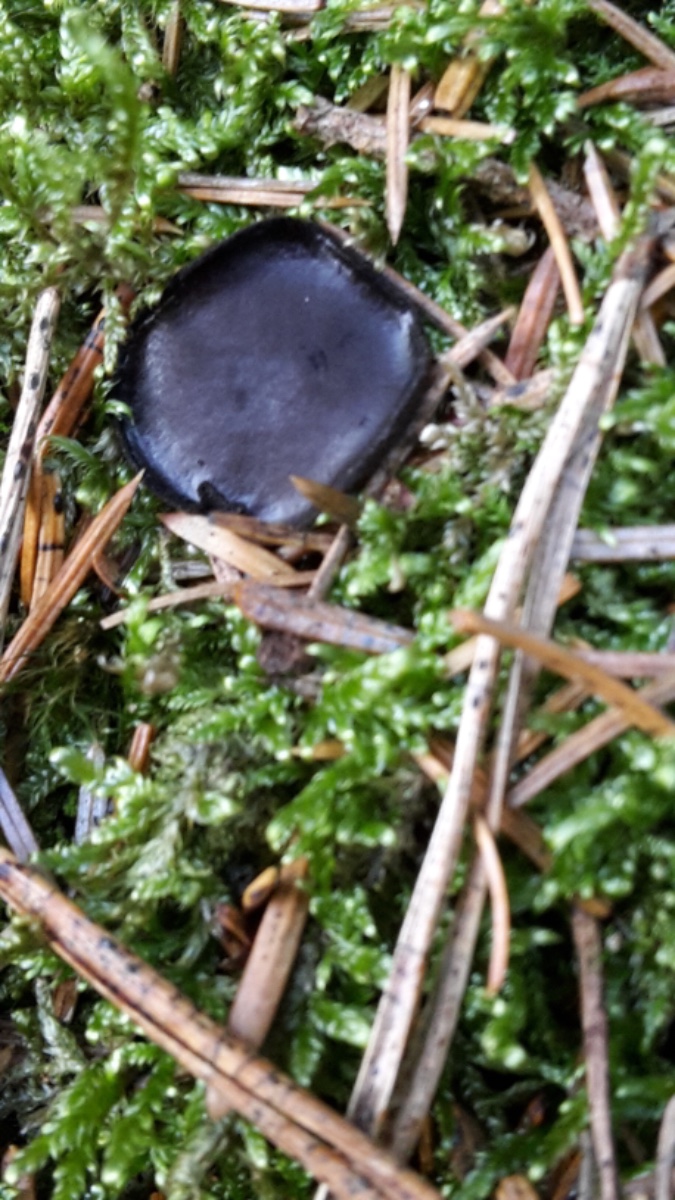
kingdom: Fungi
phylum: Ascomycota
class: Pezizomycetes
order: Pezizales
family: Sarcosomataceae
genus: Pseudoplectania
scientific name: Pseudoplectania nigrella
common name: almindelig sortbæger
